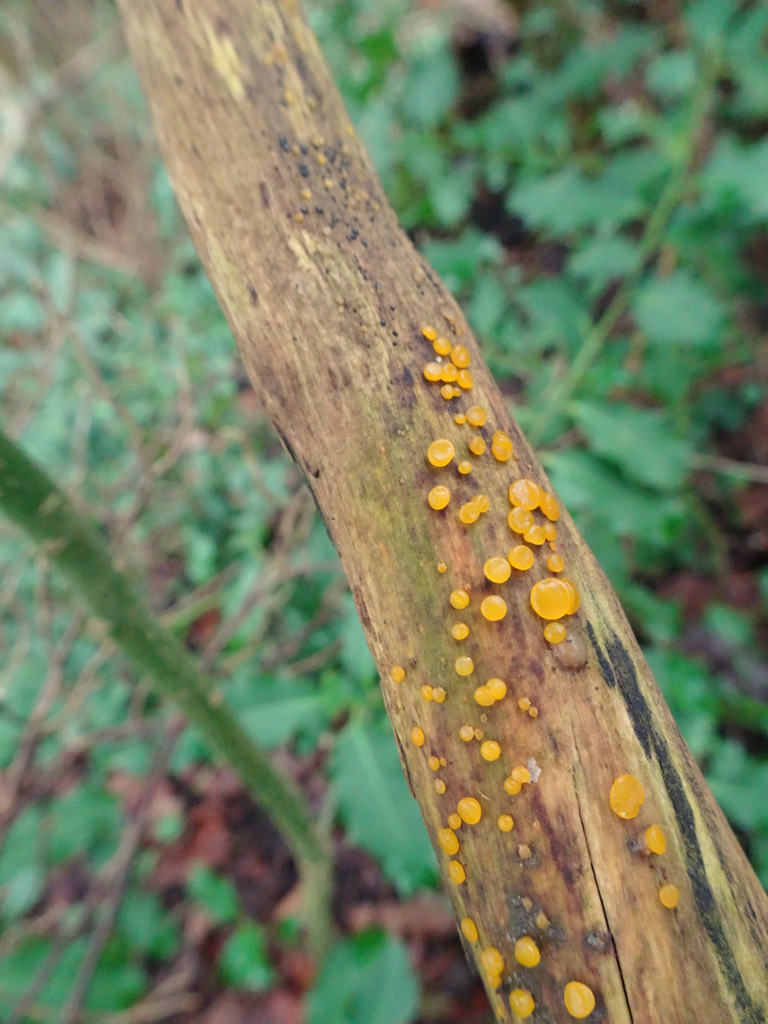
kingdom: Fungi
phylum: Basidiomycota
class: Dacrymycetes
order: Dacrymycetales
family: Dacrymycetaceae
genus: Dacrymyces
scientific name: Dacrymyces
